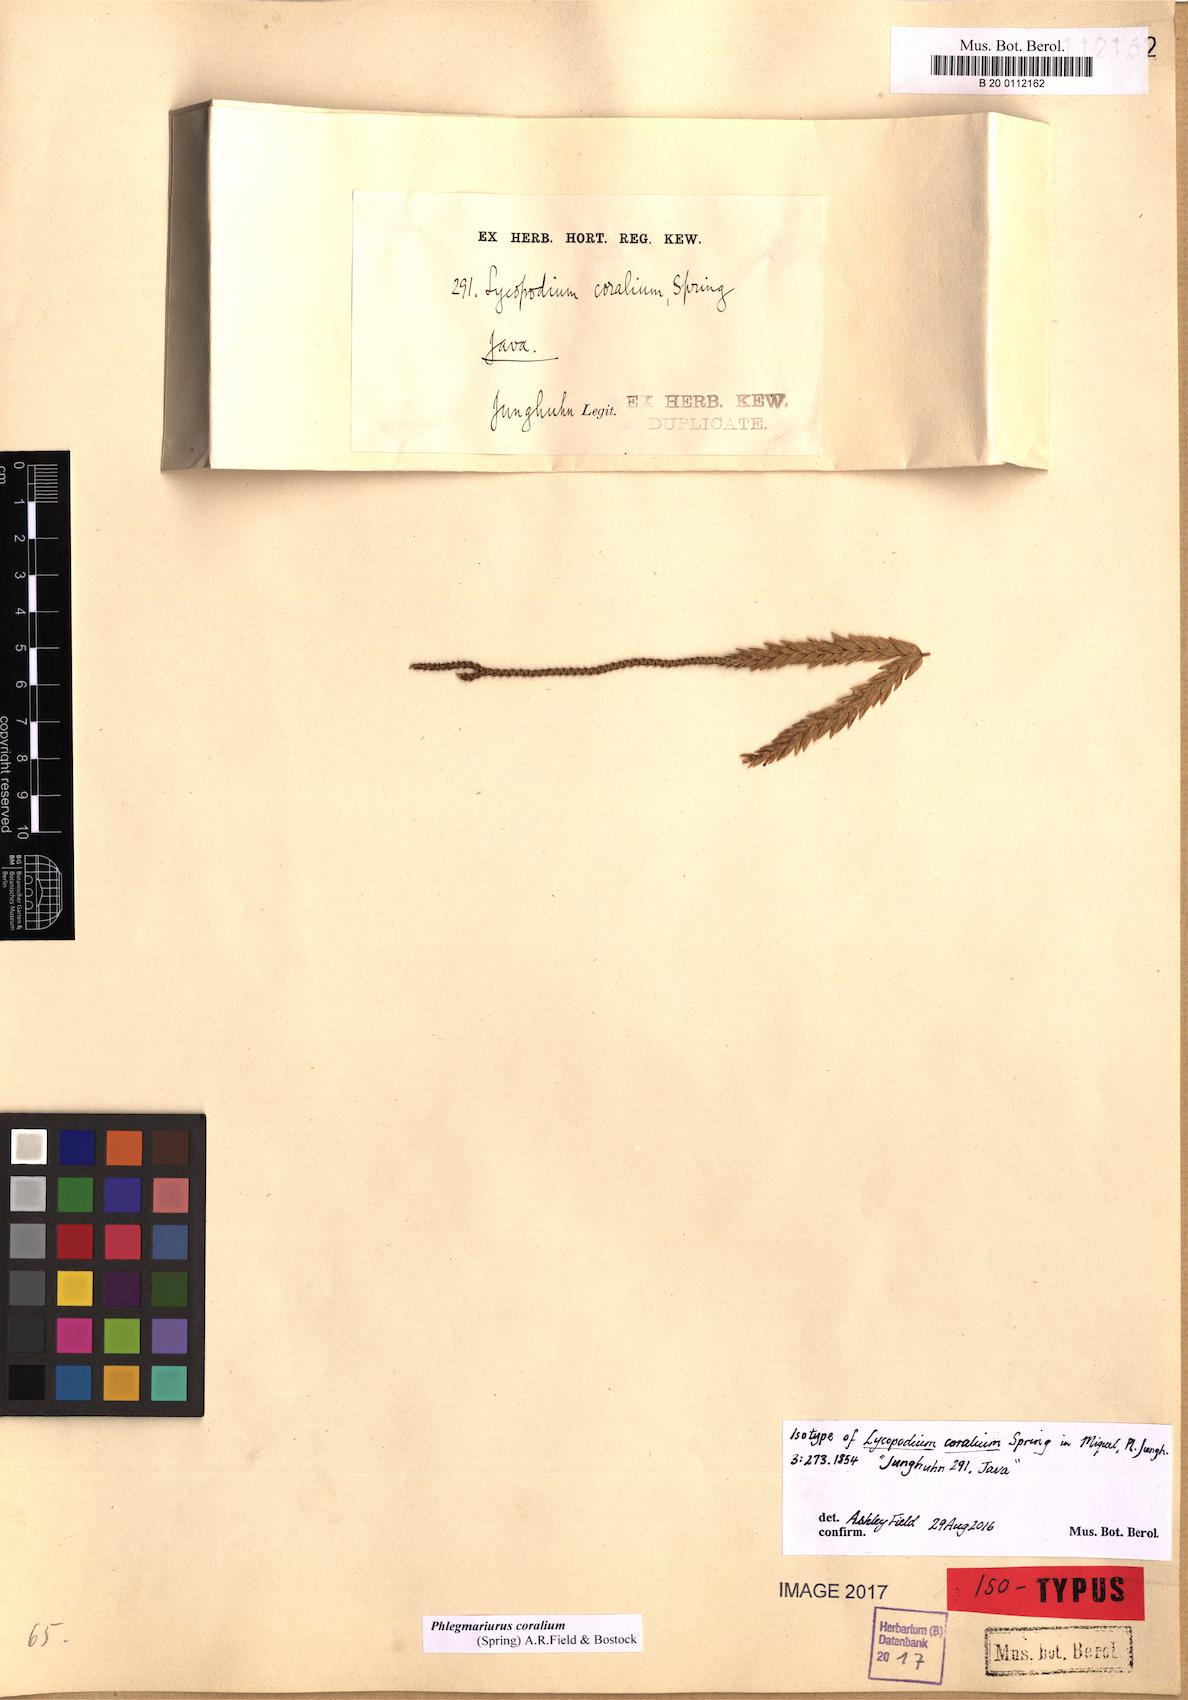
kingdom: Plantae
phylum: Tracheophyta
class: Lycopodiopsida
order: Lycopodiales
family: Lycopodiaceae
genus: Phlegmariurus
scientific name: Phlegmariurus coralium
